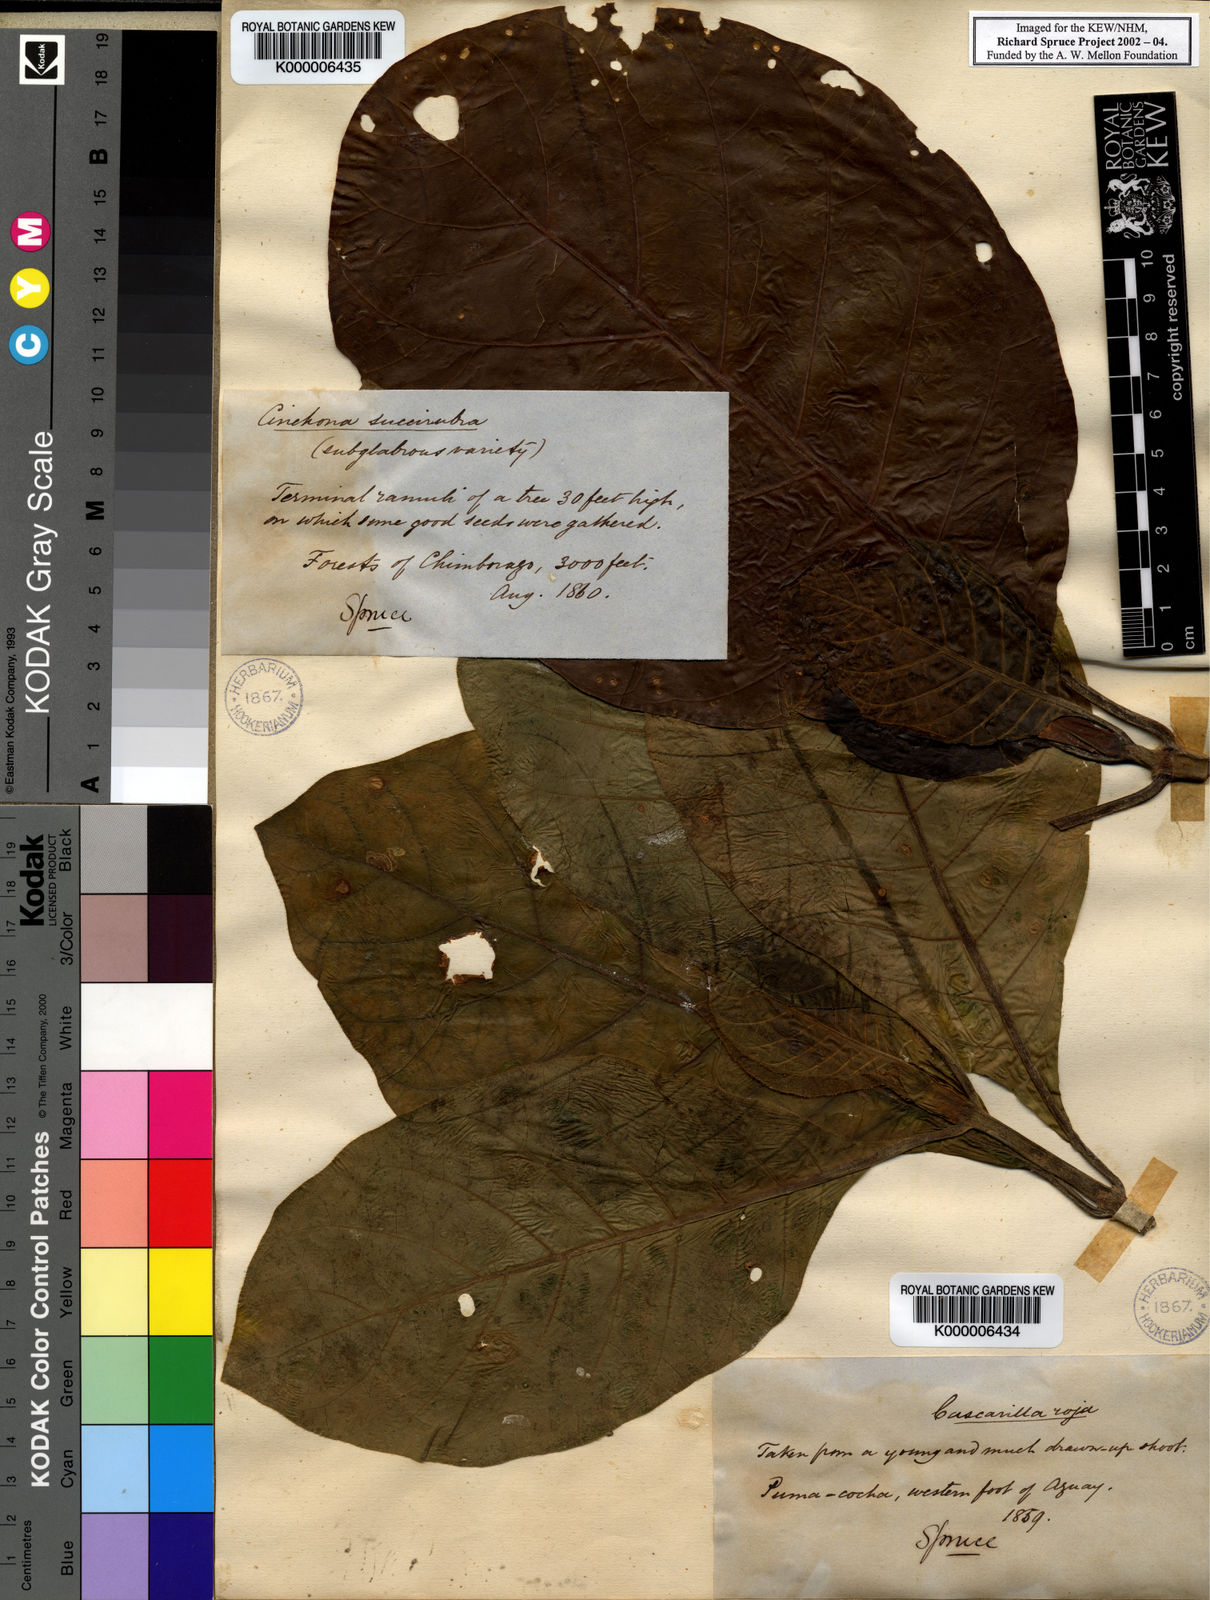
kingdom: Plantae
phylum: Tracheophyta
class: Magnoliopsida
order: Gentianales
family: Rubiaceae
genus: Cinchona
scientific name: Cinchona pubescens
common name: Quinine
